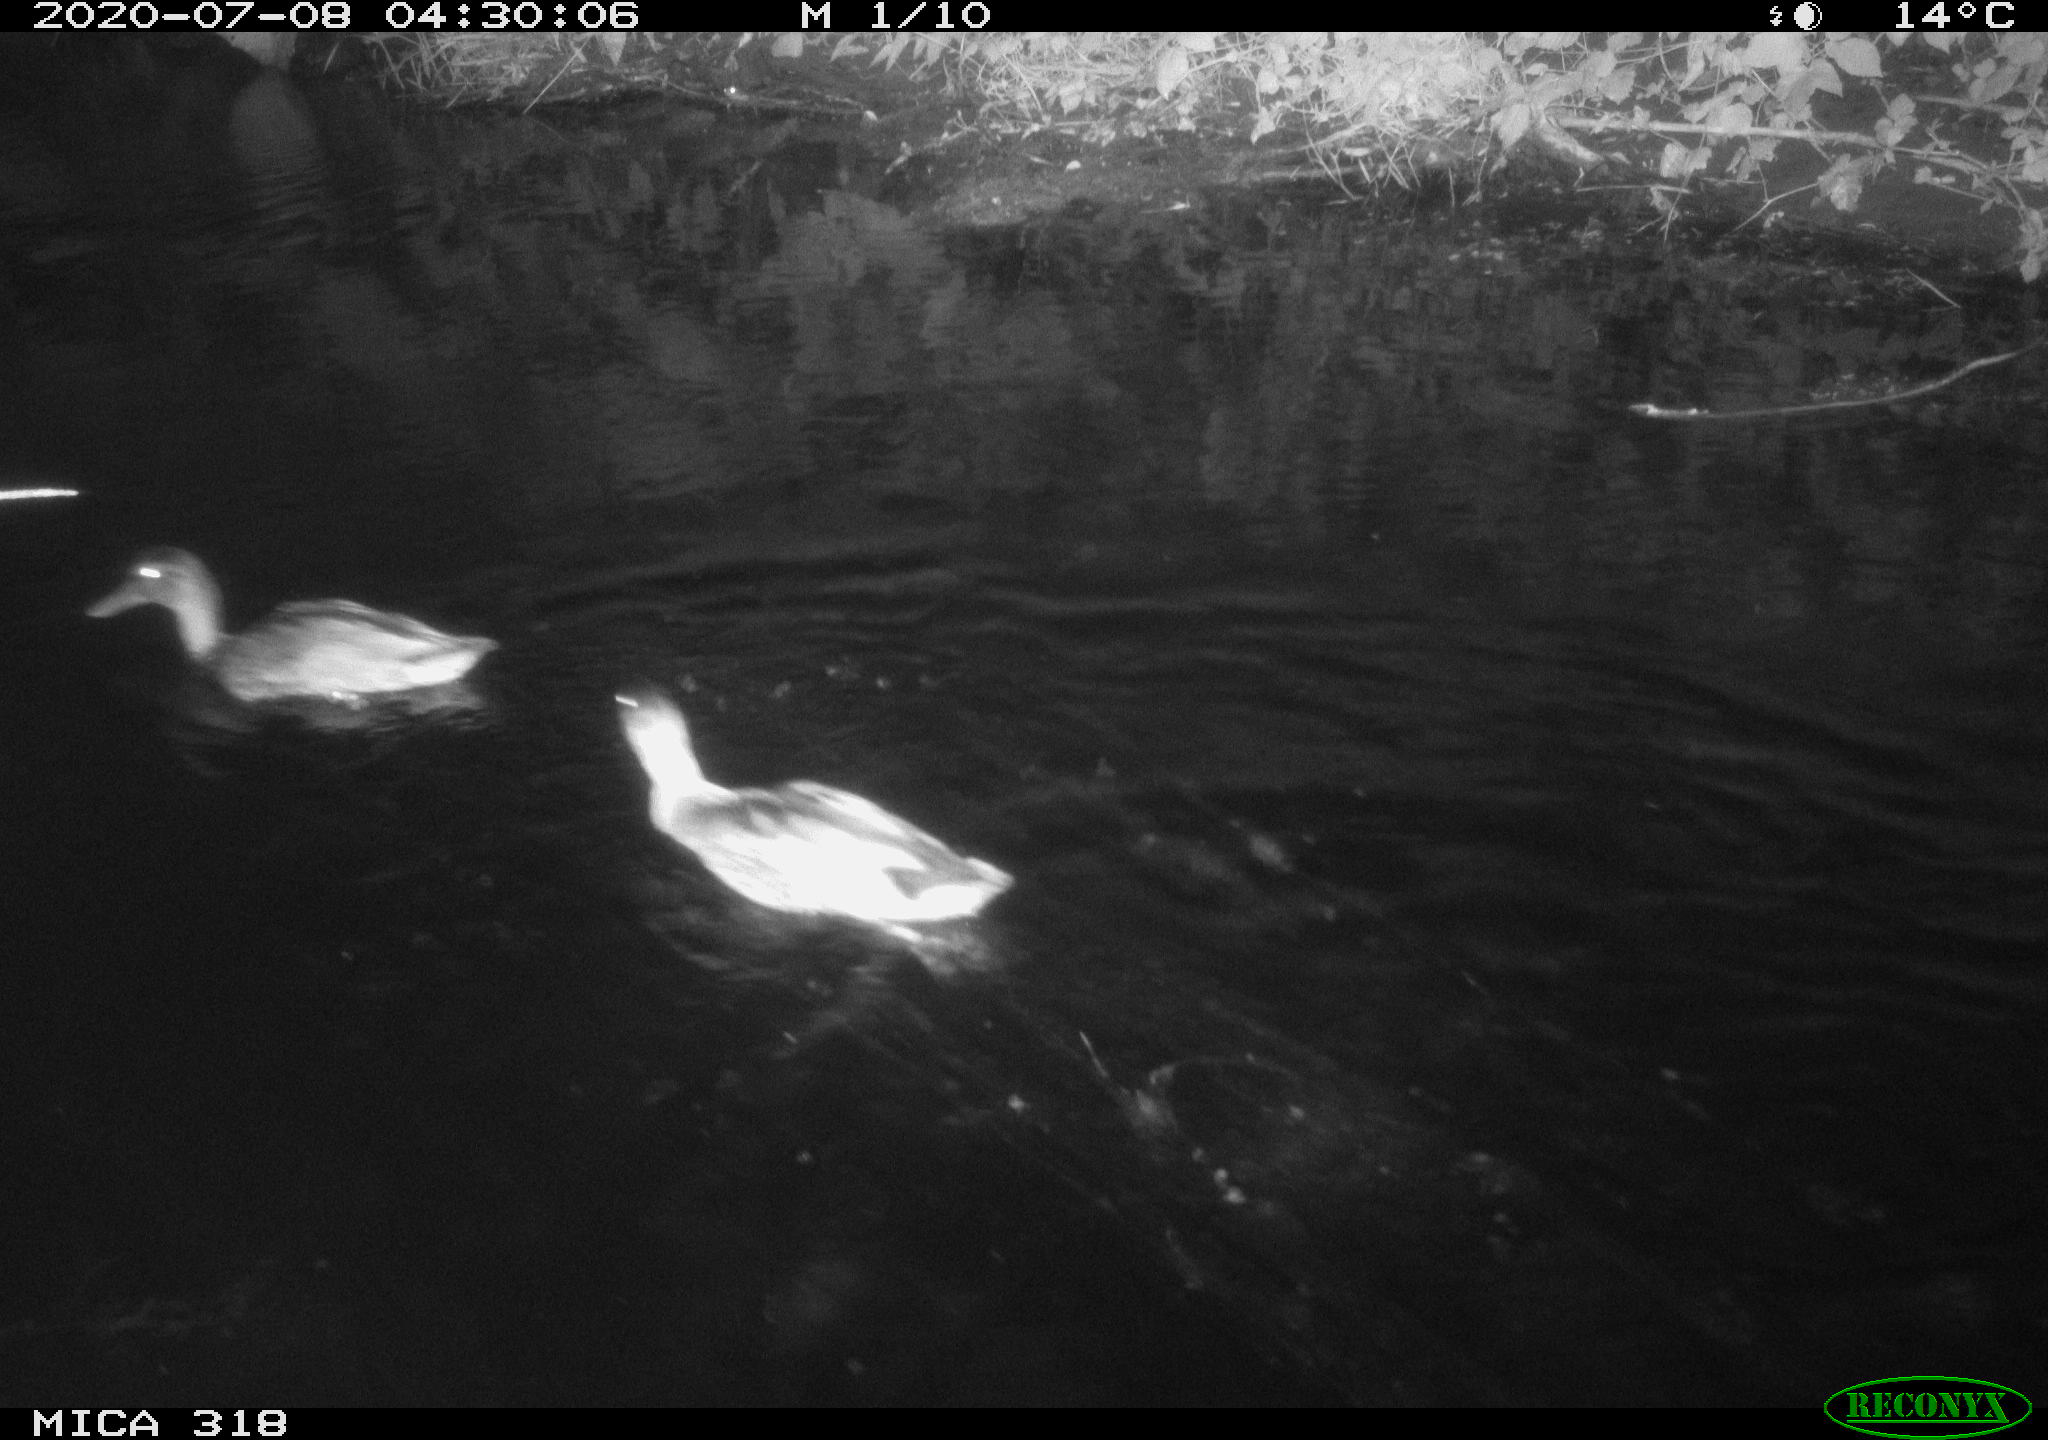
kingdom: Animalia
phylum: Chordata
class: Aves
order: Anseriformes
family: Anatidae
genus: Mareca
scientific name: Mareca strepera
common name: Gadwall
